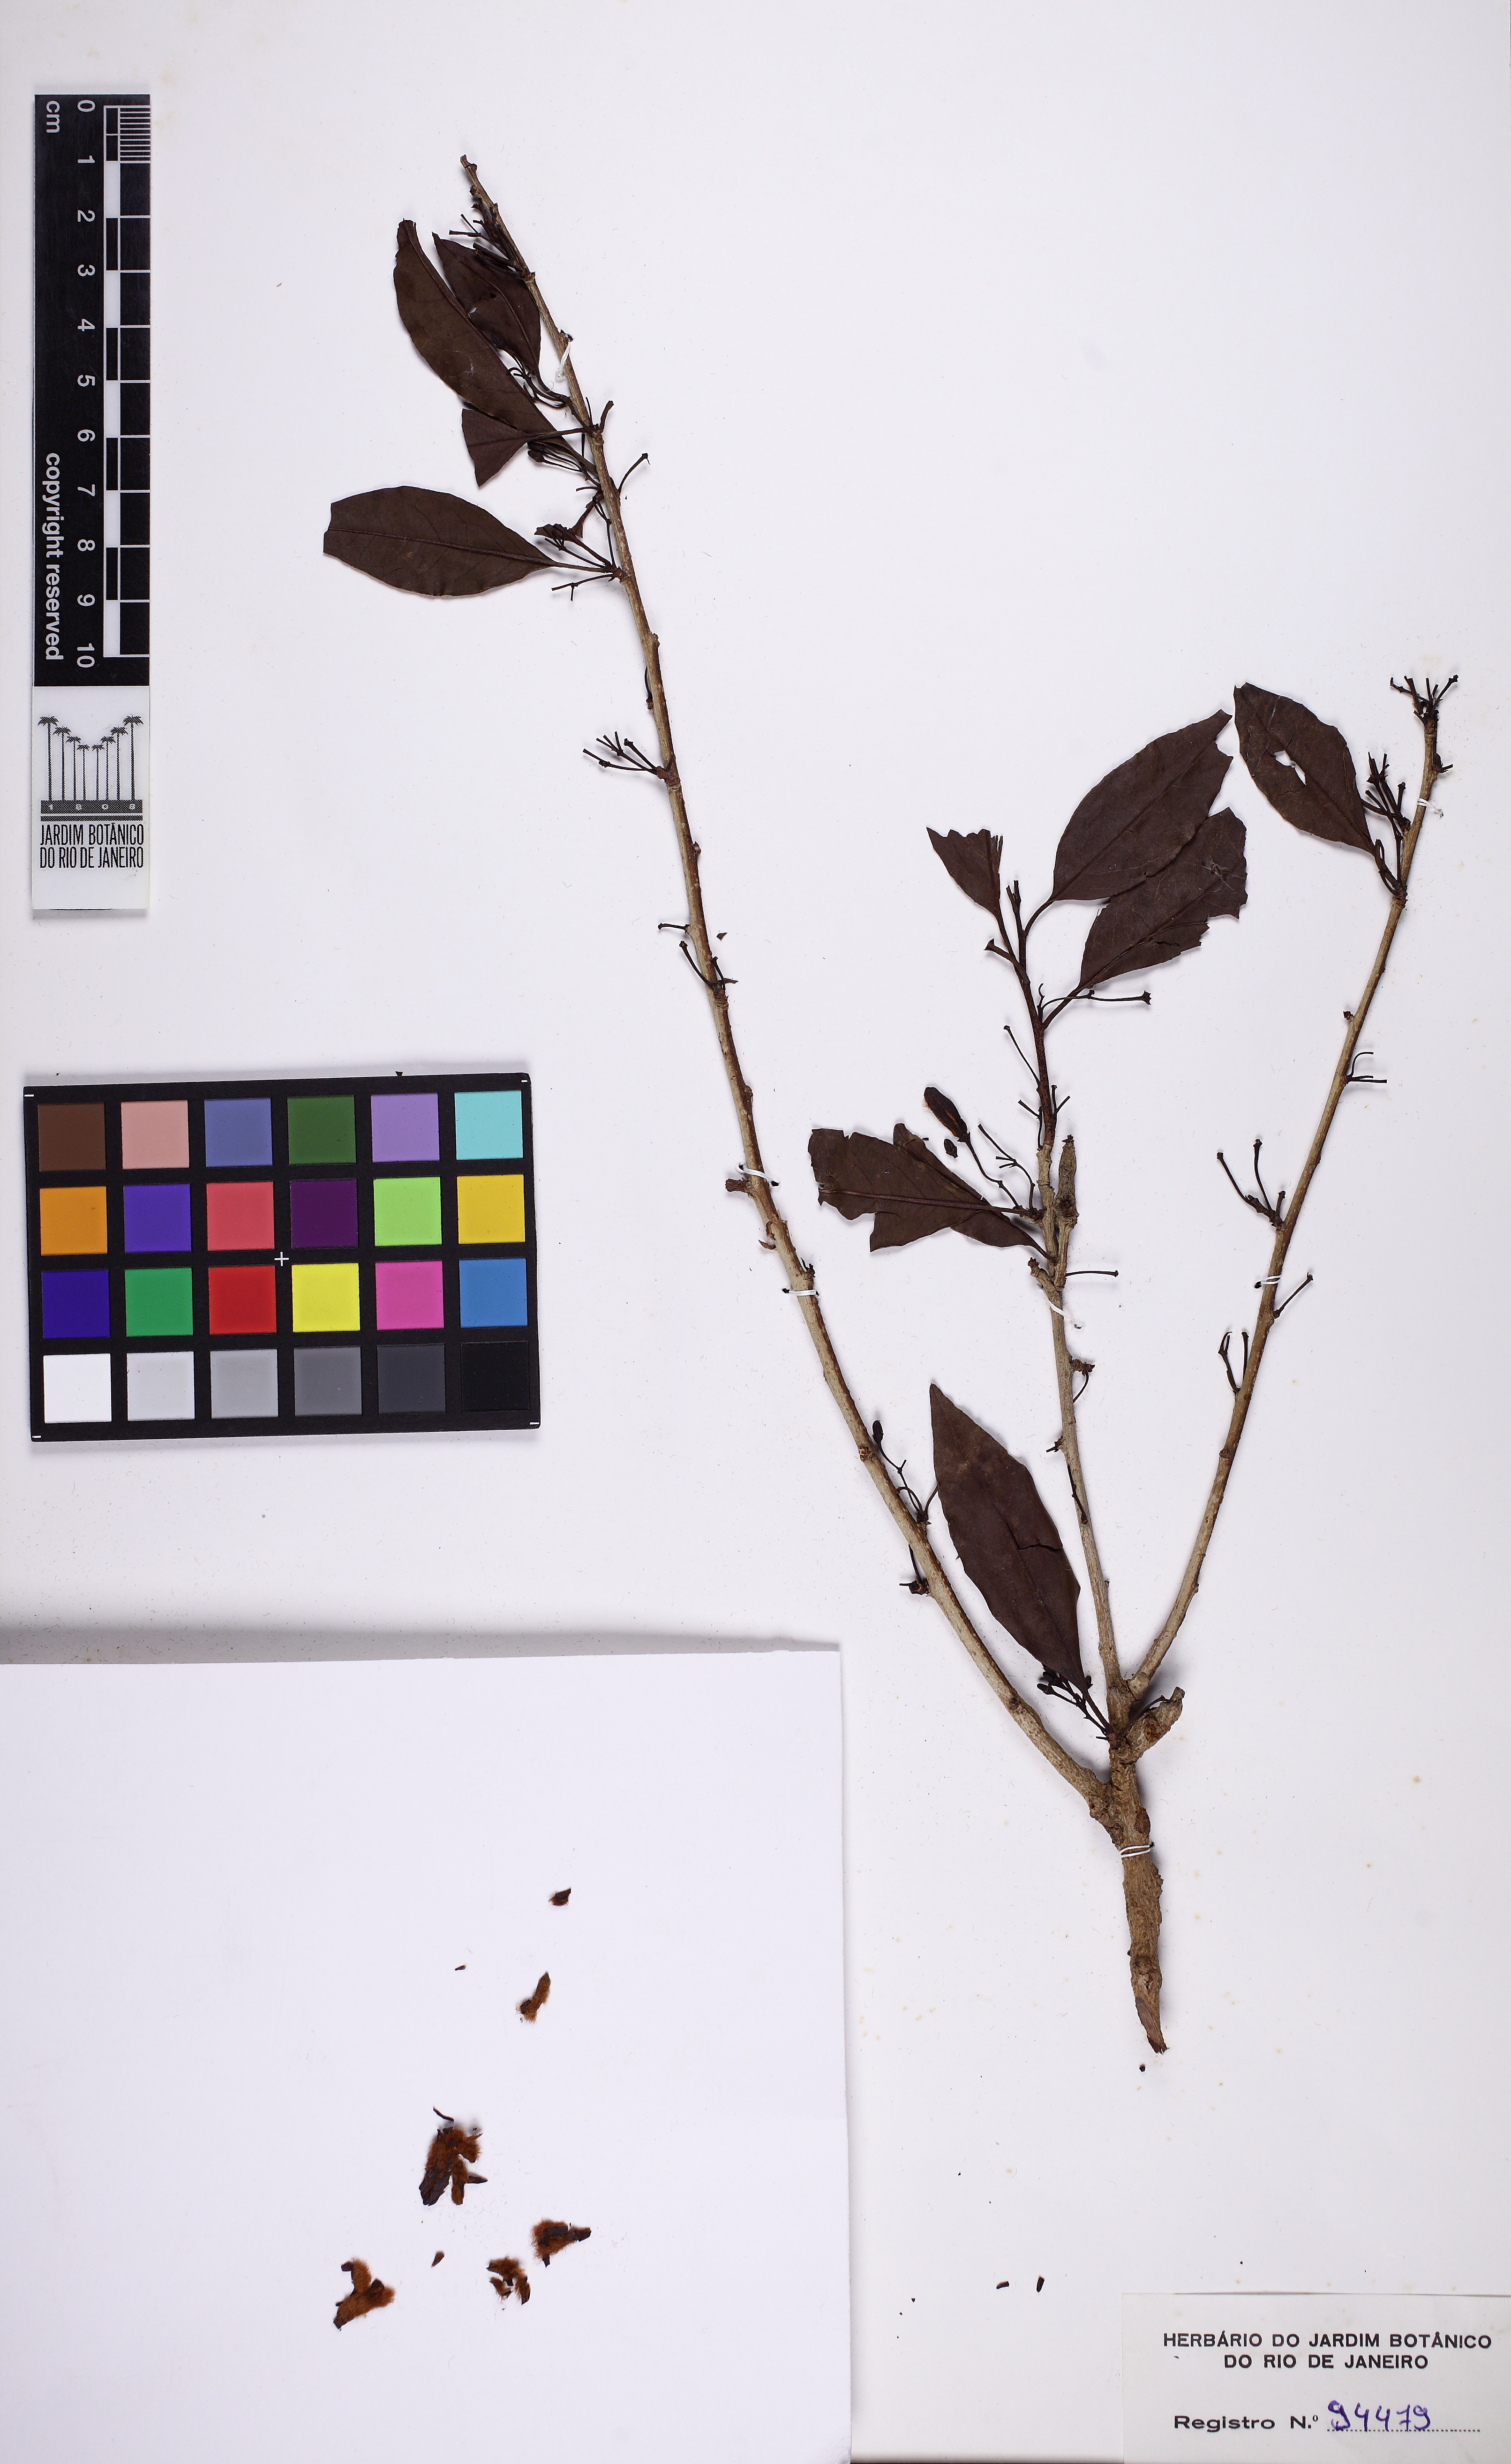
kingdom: Plantae
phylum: Tracheophyta
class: Magnoliopsida
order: Santalales
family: Ximeniaceae
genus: Ximenia
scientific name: Ximenia americana
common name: Tallowwood
